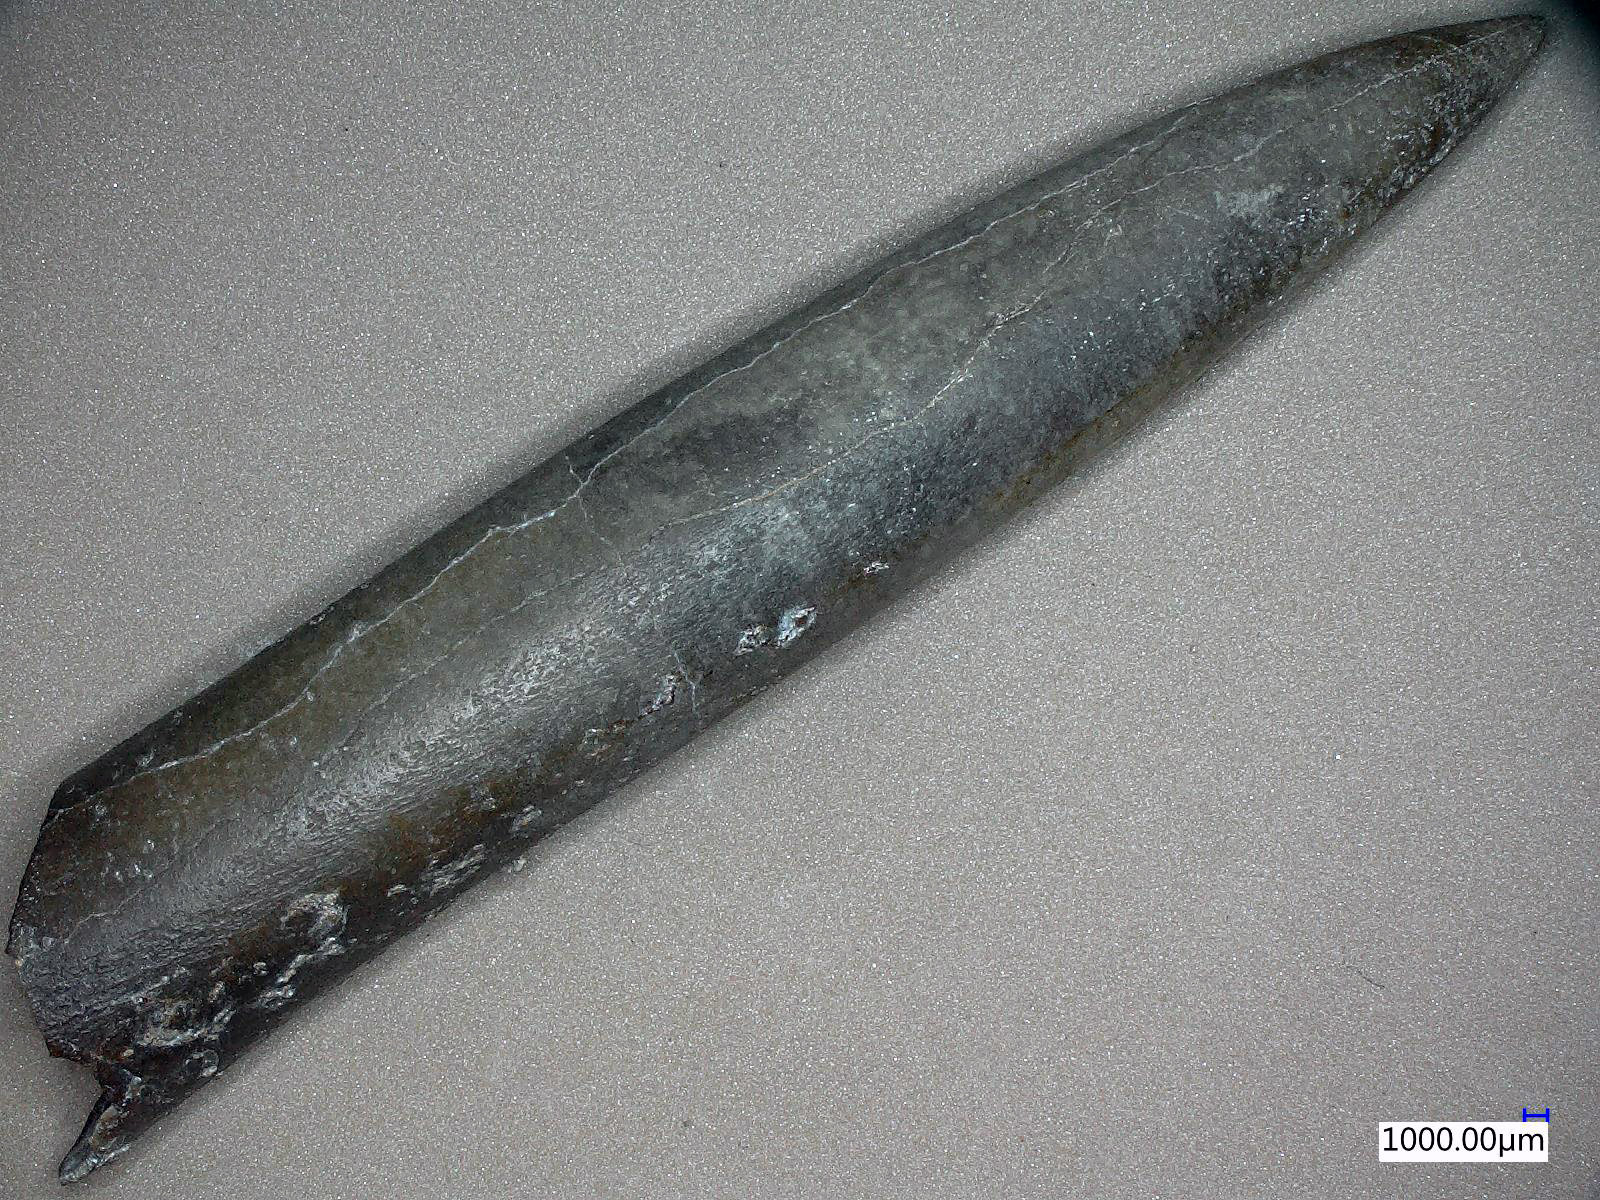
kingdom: Animalia
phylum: Mollusca
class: Cephalopoda
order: Belemnitida
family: Passaloteuthidae
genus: Passaloteuthis
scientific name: Passaloteuthis
